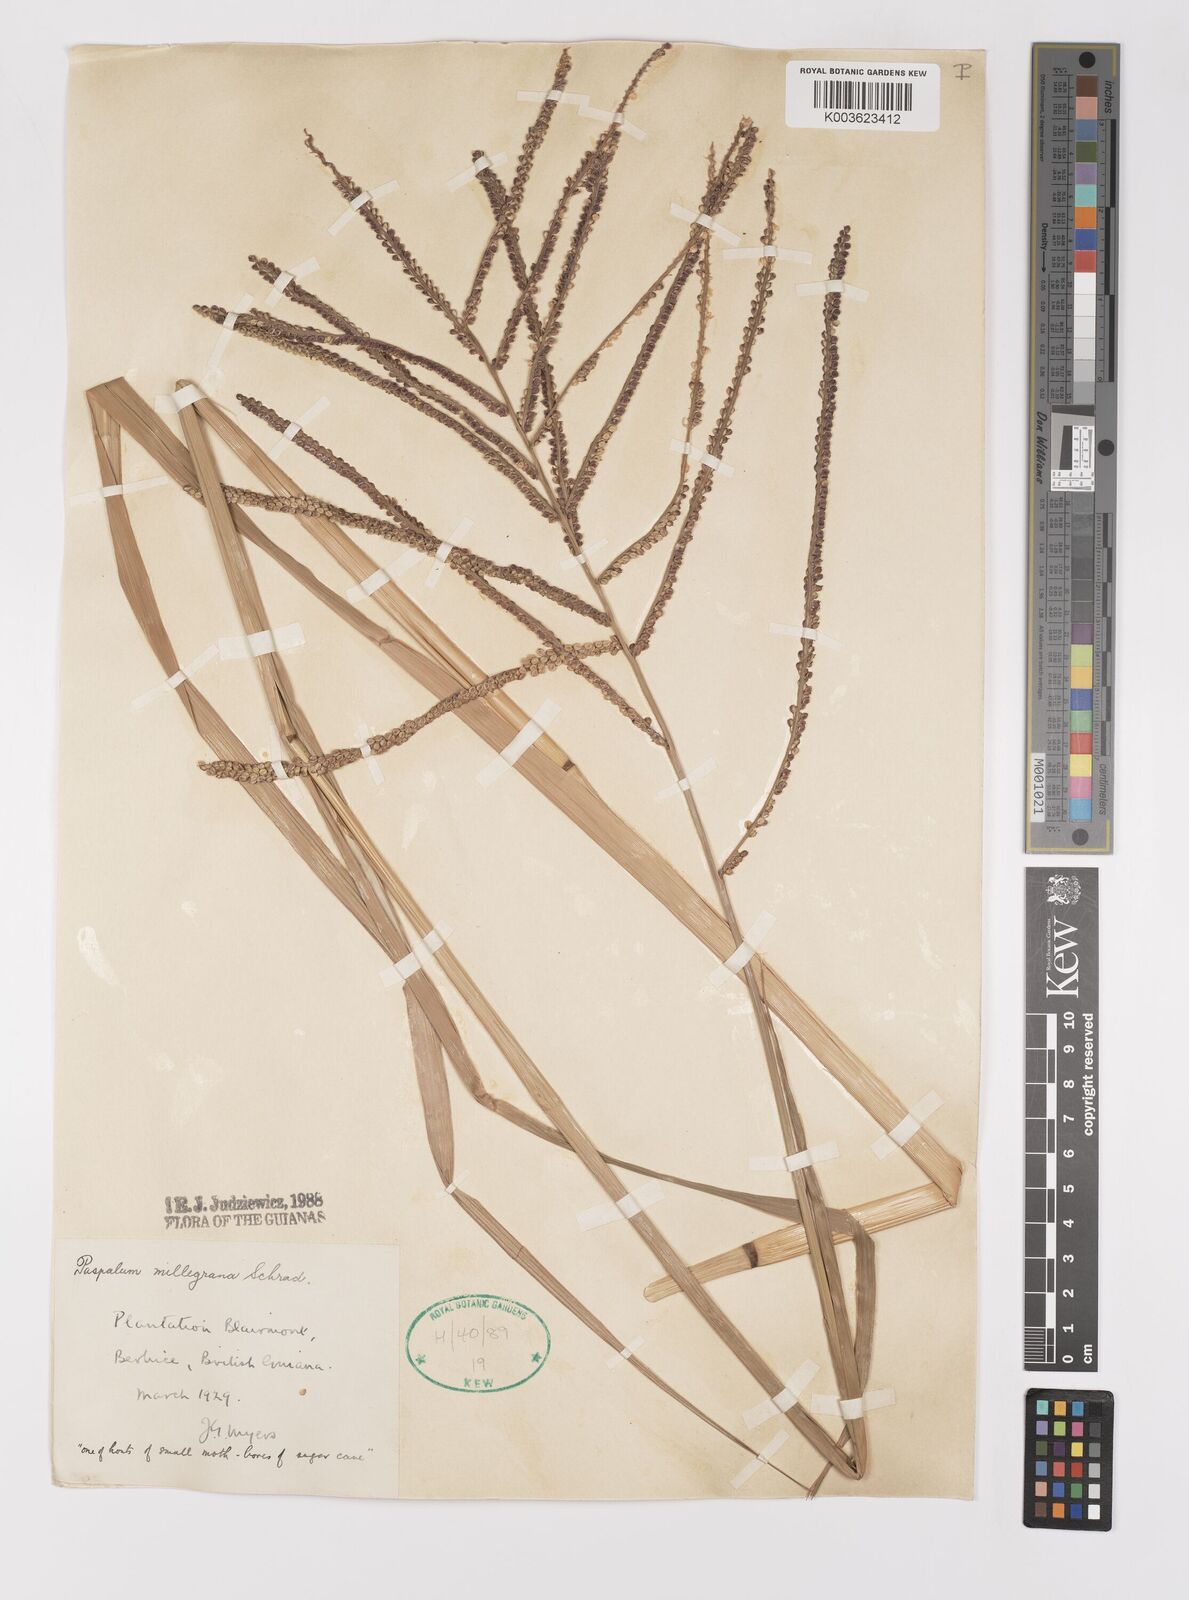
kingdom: Plantae
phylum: Tracheophyta
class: Liliopsida
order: Poales
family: Poaceae
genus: Paspalum
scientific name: Paspalum millegranum
